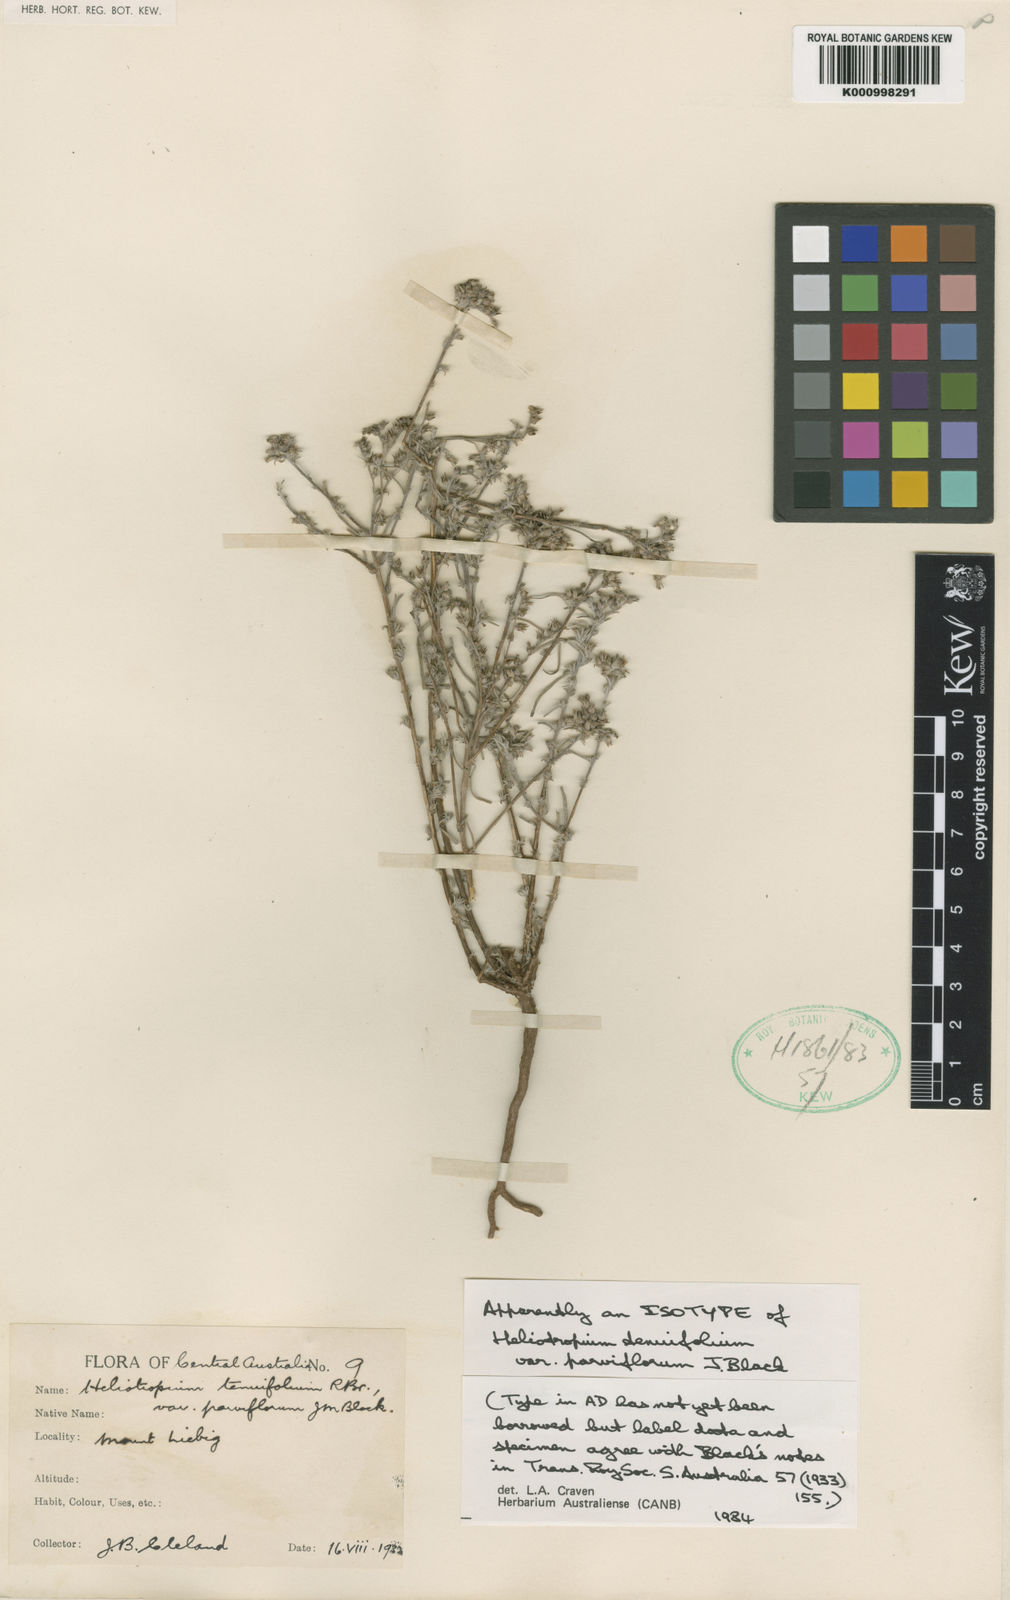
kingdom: Plantae
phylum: Tracheophyta
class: Magnoliopsida
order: Boraginales
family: Heliotropiaceae
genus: Euploca
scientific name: Euploca tenuifolia
